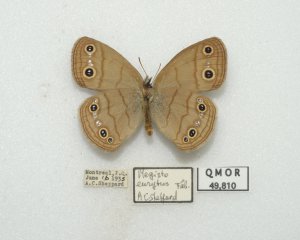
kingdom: Animalia
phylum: Arthropoda
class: Insecta
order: Lepidoptera
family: Nymphalidae
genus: Euptychia
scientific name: Euptychia cymela
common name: Little Wood Satyr
